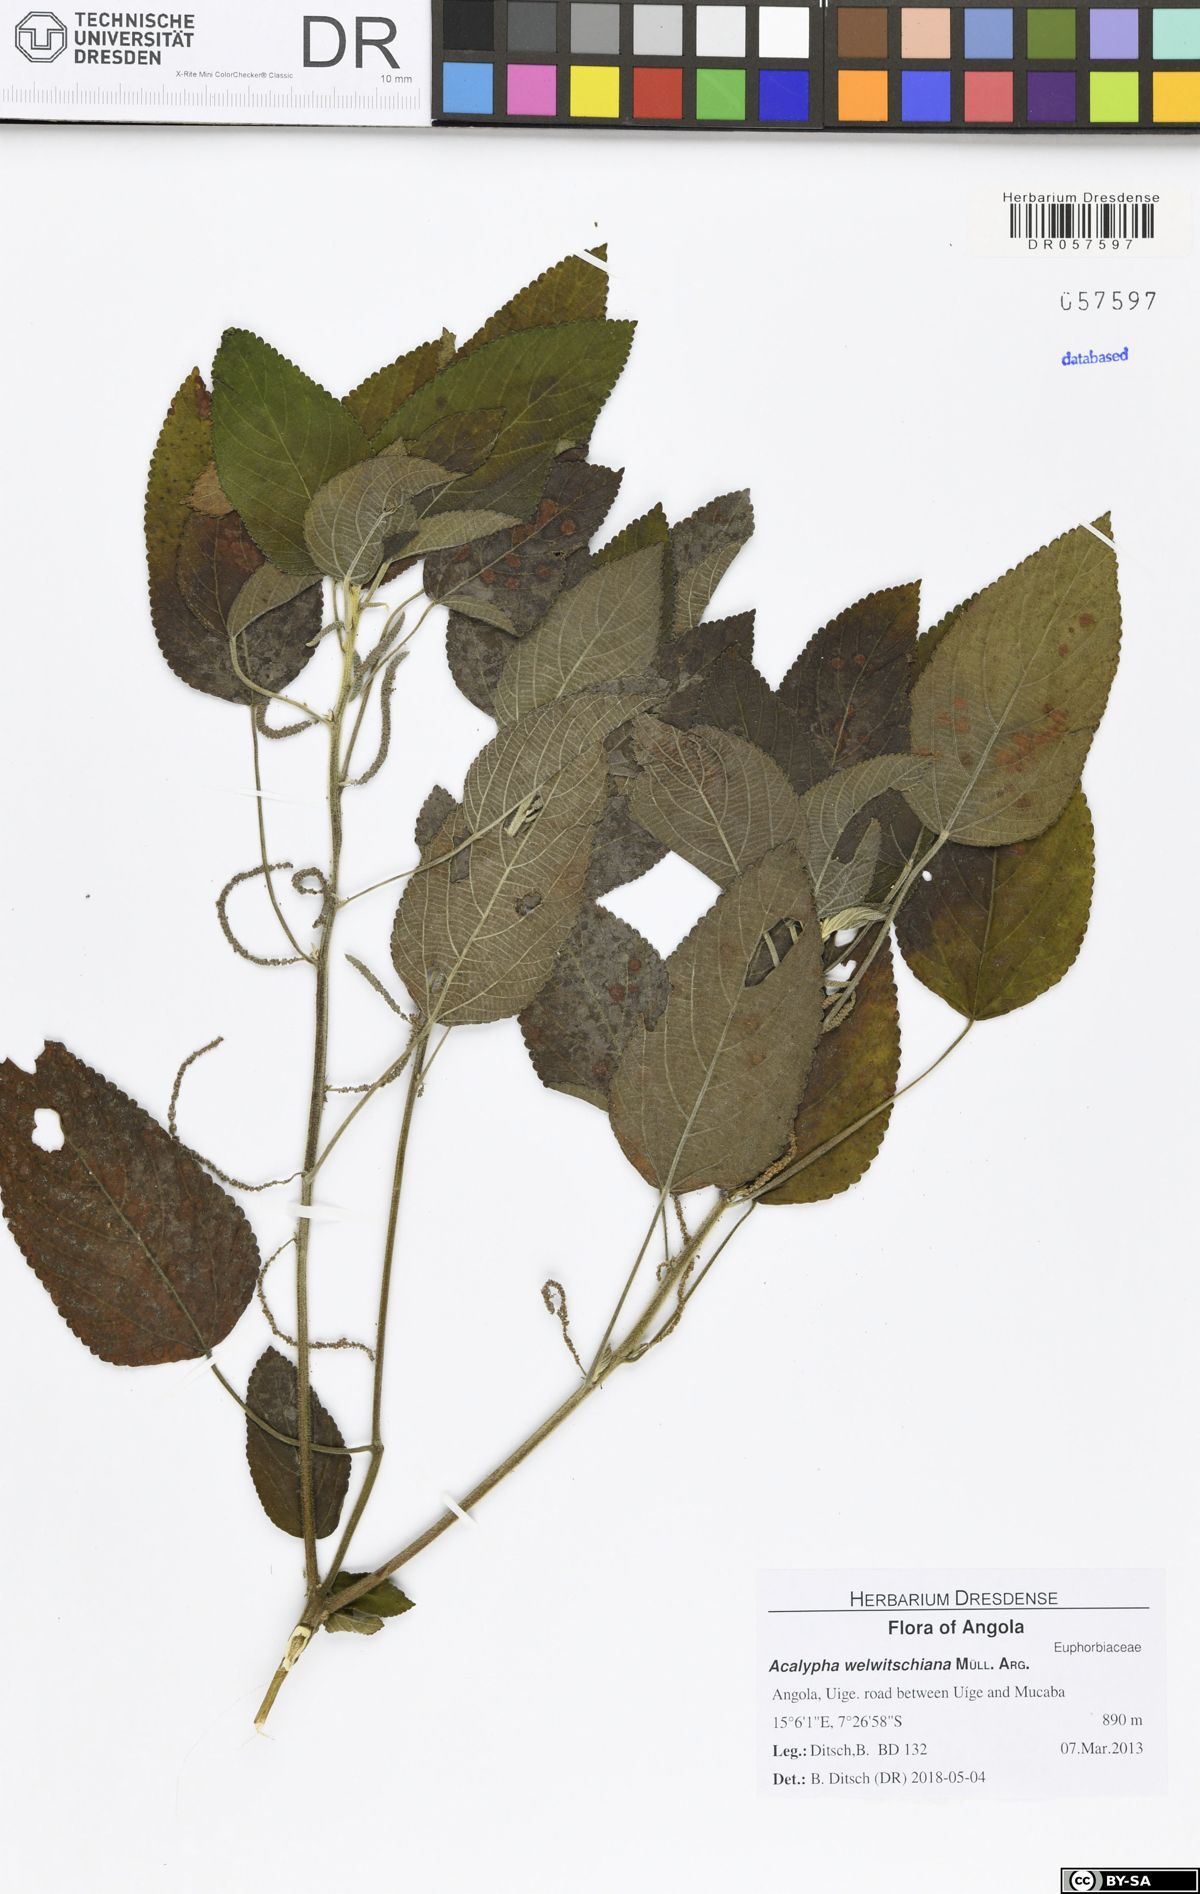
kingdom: Plantae
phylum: Tracheophyta
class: Magnoliopsida
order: Malpighiales
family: Euphorbiaceae
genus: Acalypha
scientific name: Acalypha welwitschiana
